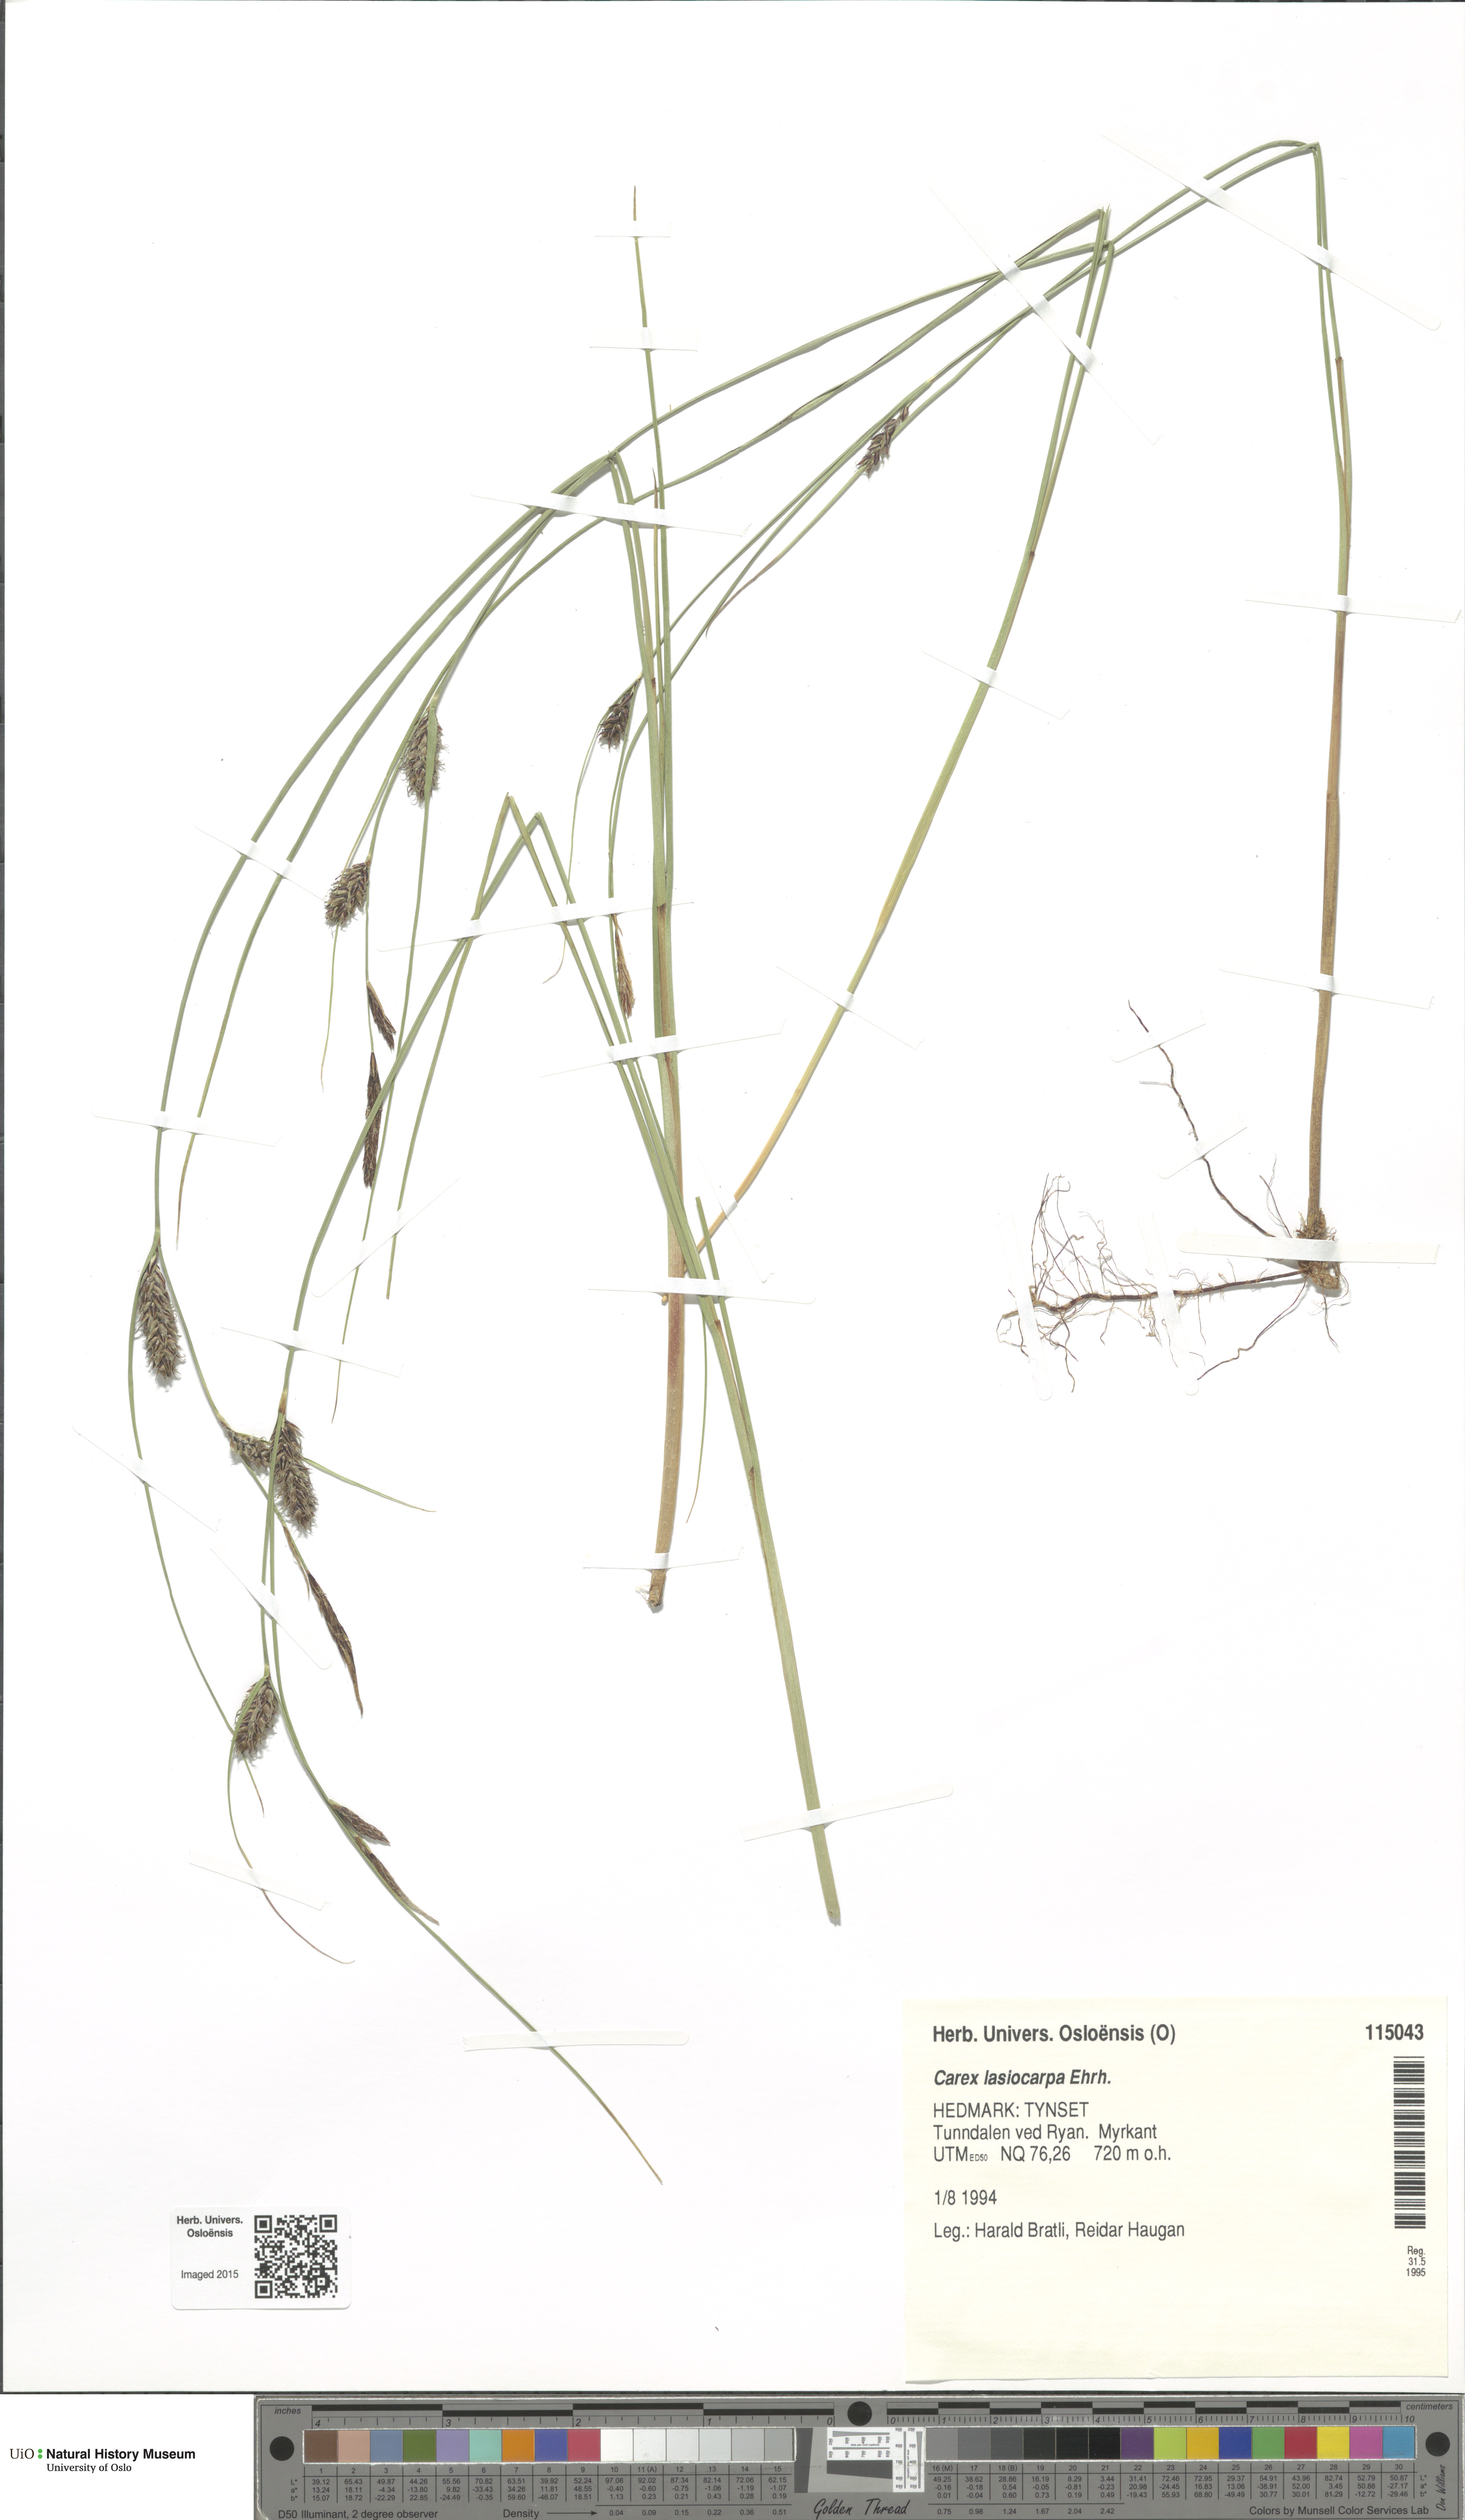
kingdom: Plantae
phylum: Tracheophyta
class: Liliopsida
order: Poales
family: Cyperaceae
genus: Carex
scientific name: Carex lasiocarpa
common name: Slender sedge
